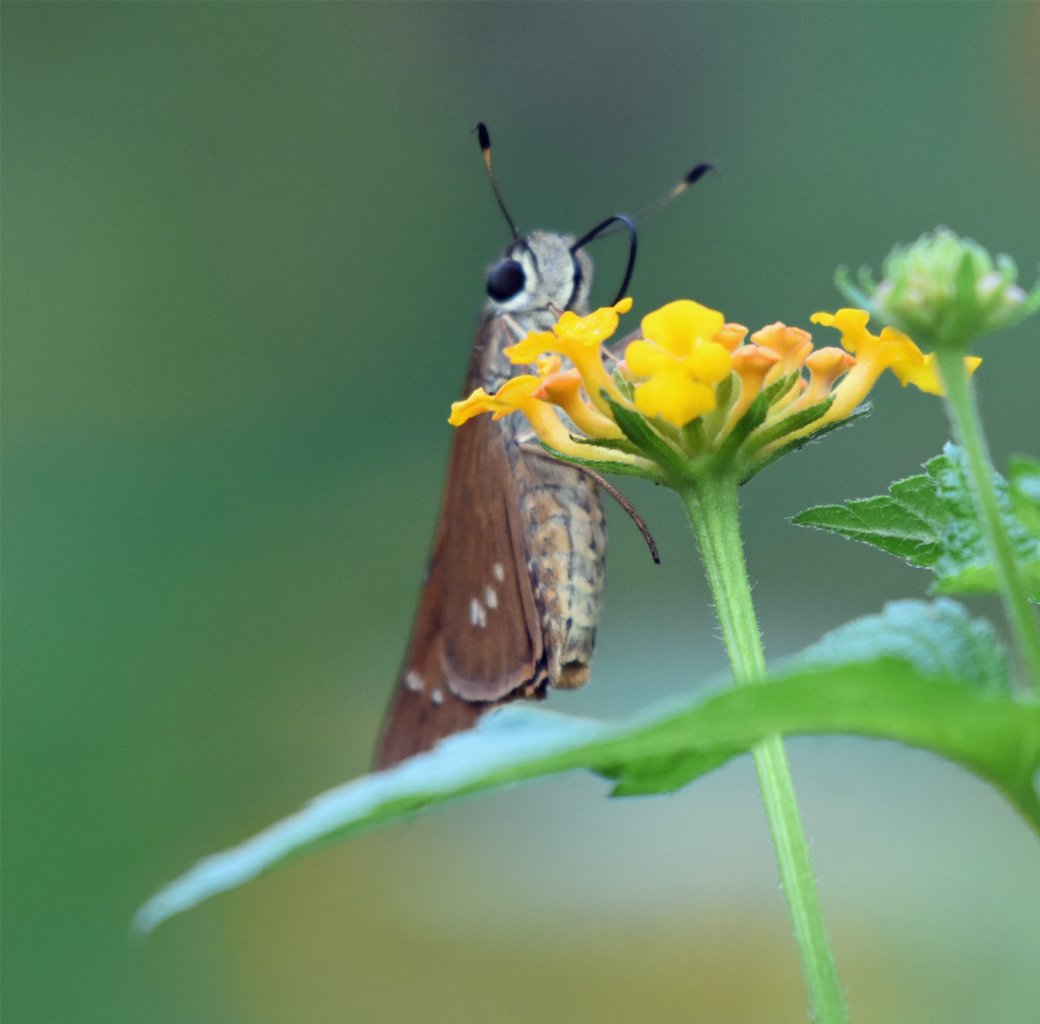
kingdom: Animalia
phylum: Arthropoda
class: Insecta
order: Lepidoptera
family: Hesperiidae
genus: Calpodes
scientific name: Calpodes ethlius
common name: Brazilian Skipper
